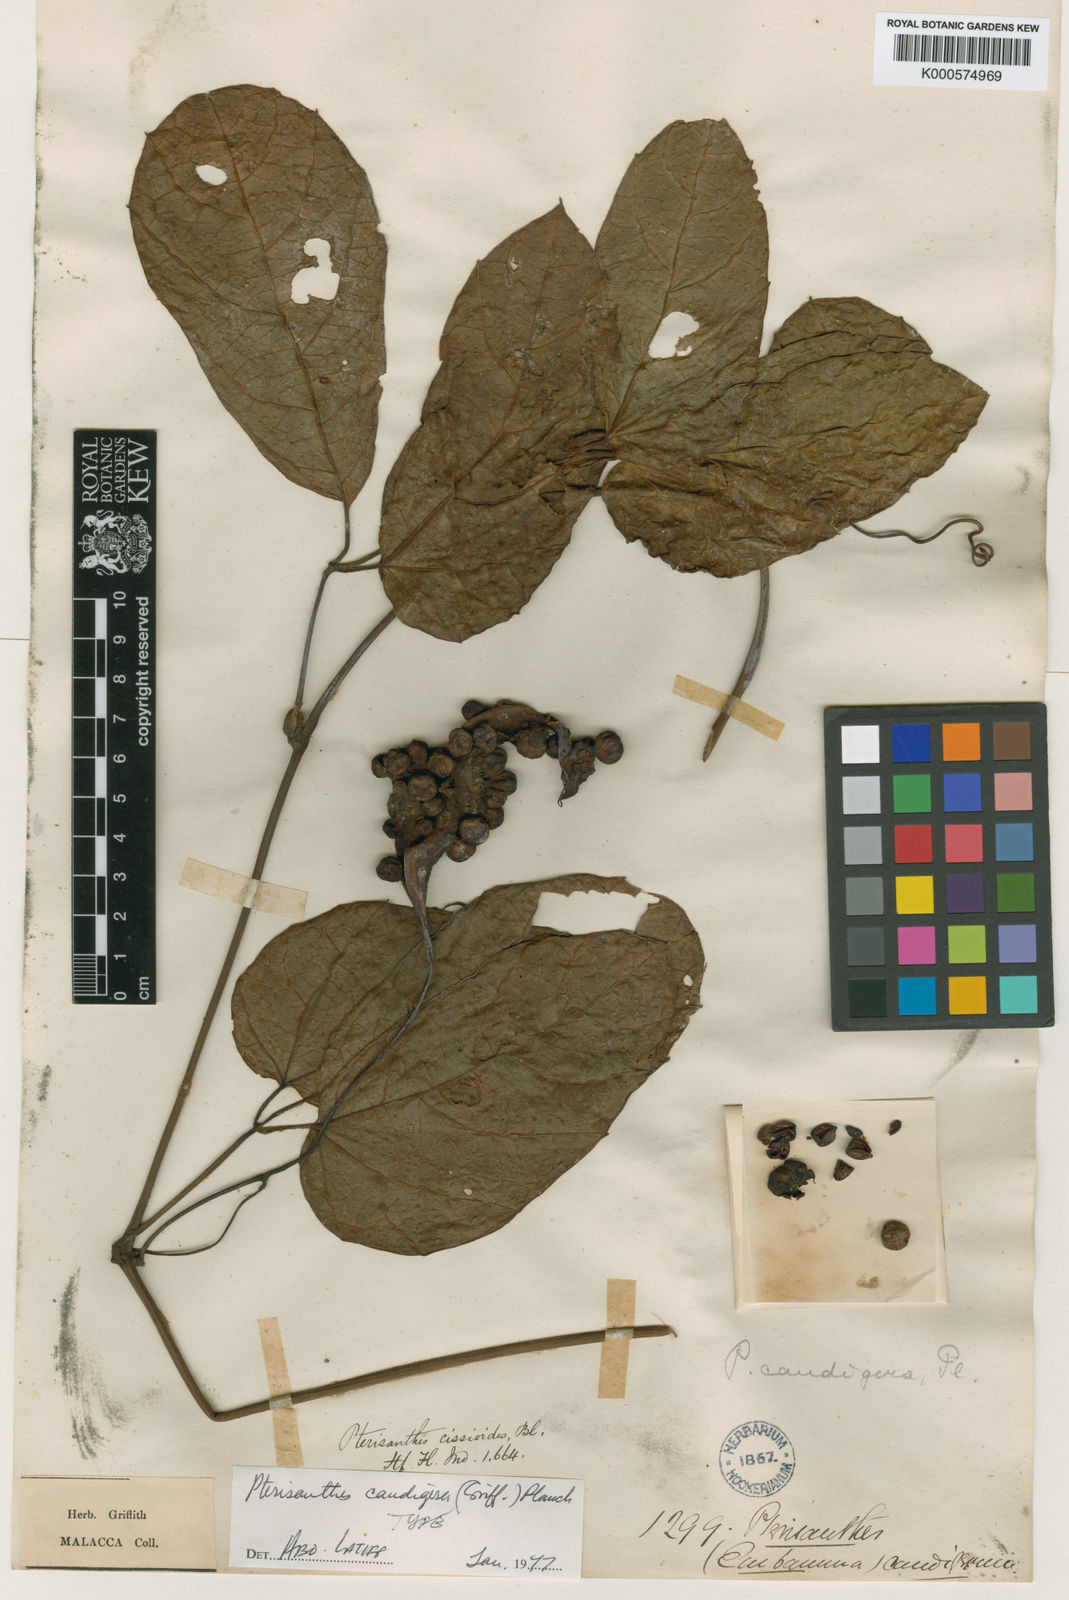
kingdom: Plantae
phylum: Tracheophyta
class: Magnoliopsida
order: Vitales
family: Vitaceae
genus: Pterisanthes
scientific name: Pterisanthes caudigera
